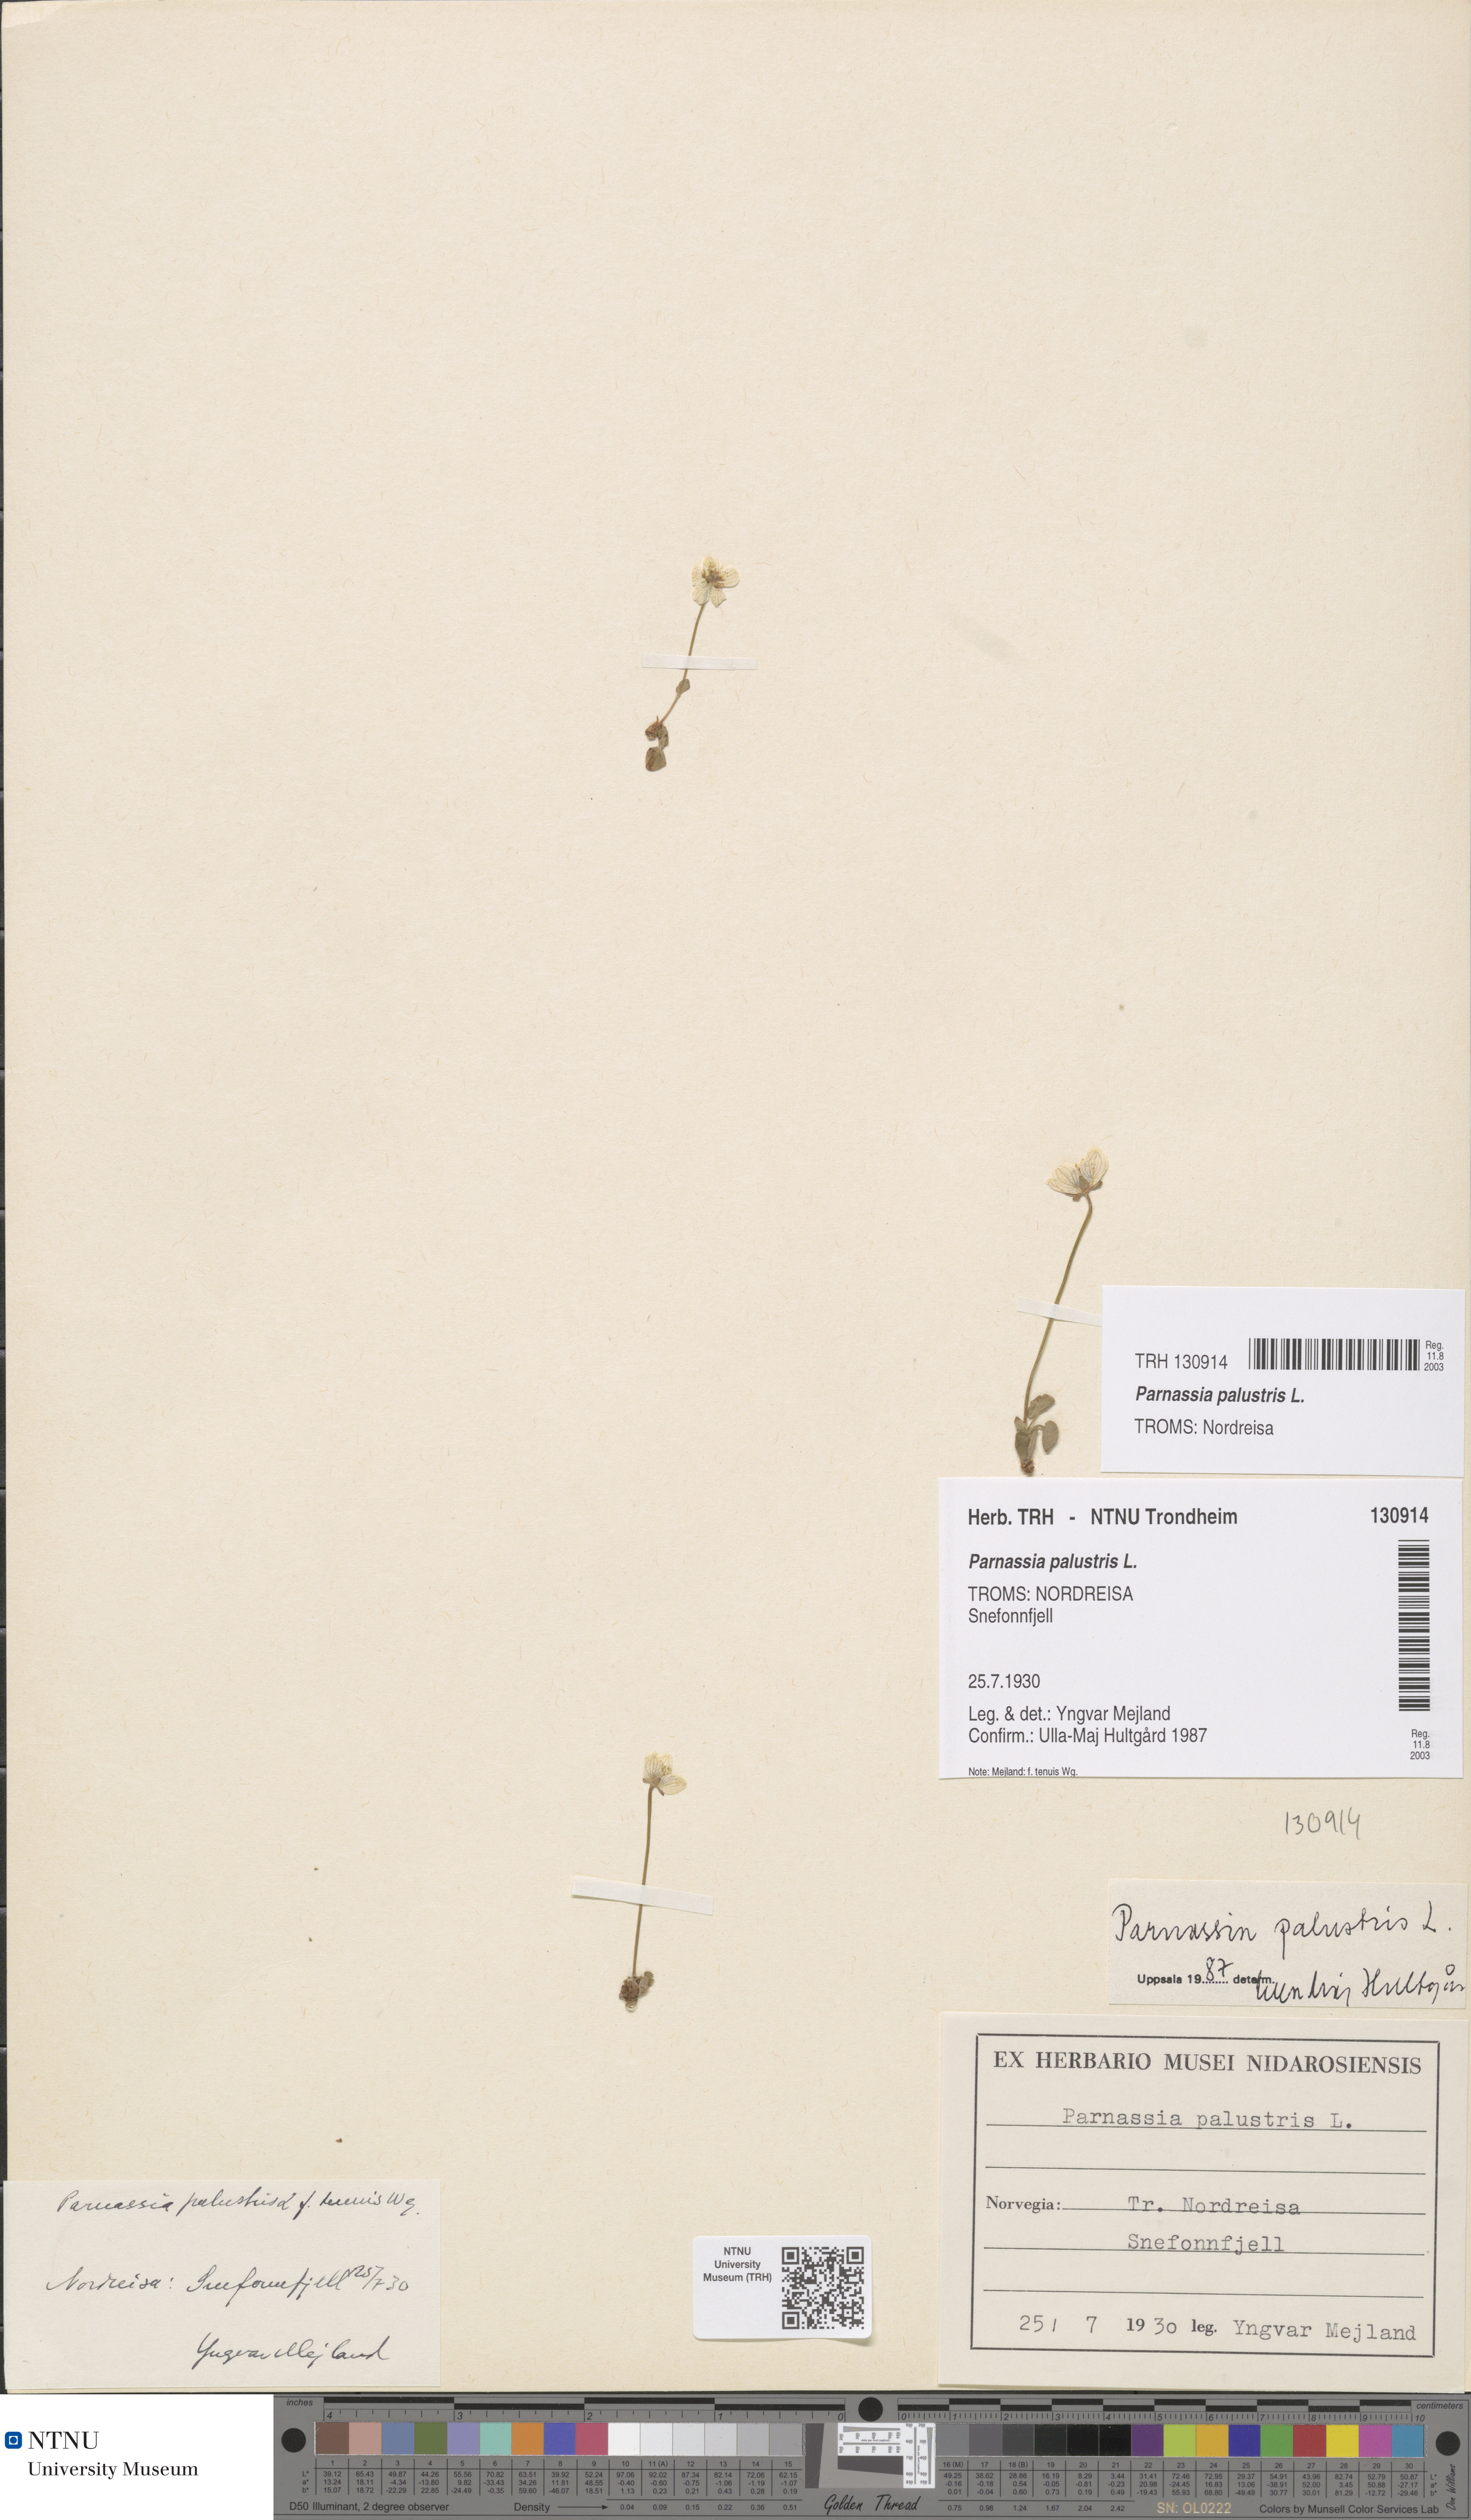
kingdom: Plantae
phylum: Tracheophyta
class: Magnoliopsida
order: Celastrales
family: Parnassiaceae
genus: Parnassia
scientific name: Parnassia palustris
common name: Grass-of-parnassus
